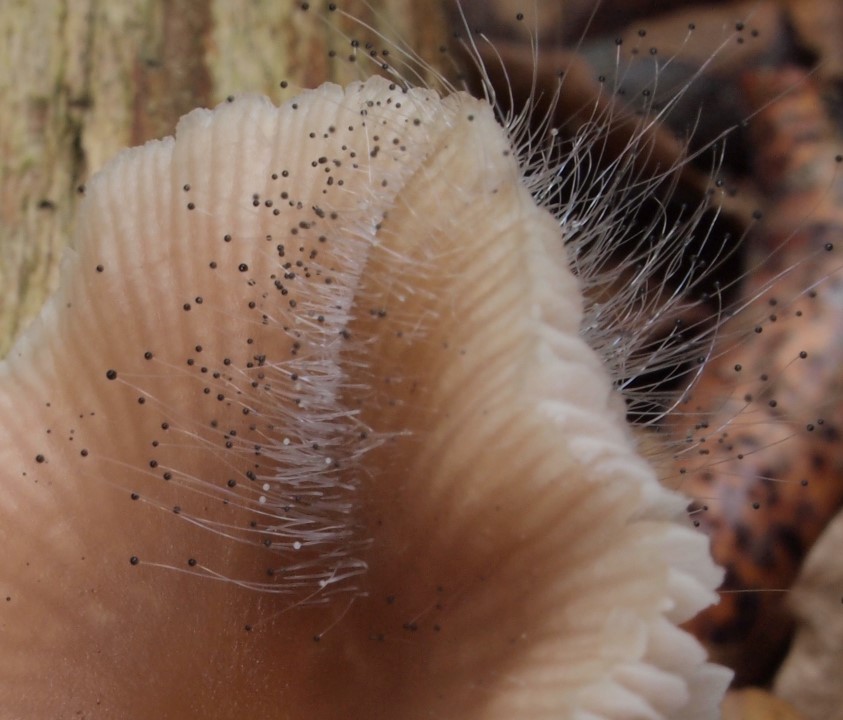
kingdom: Fungi
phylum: Mucoromycota
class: Mucoromycetes
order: Mucorales
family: Phycomycetaceae
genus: Spinellus
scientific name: Spinellus fusiger
